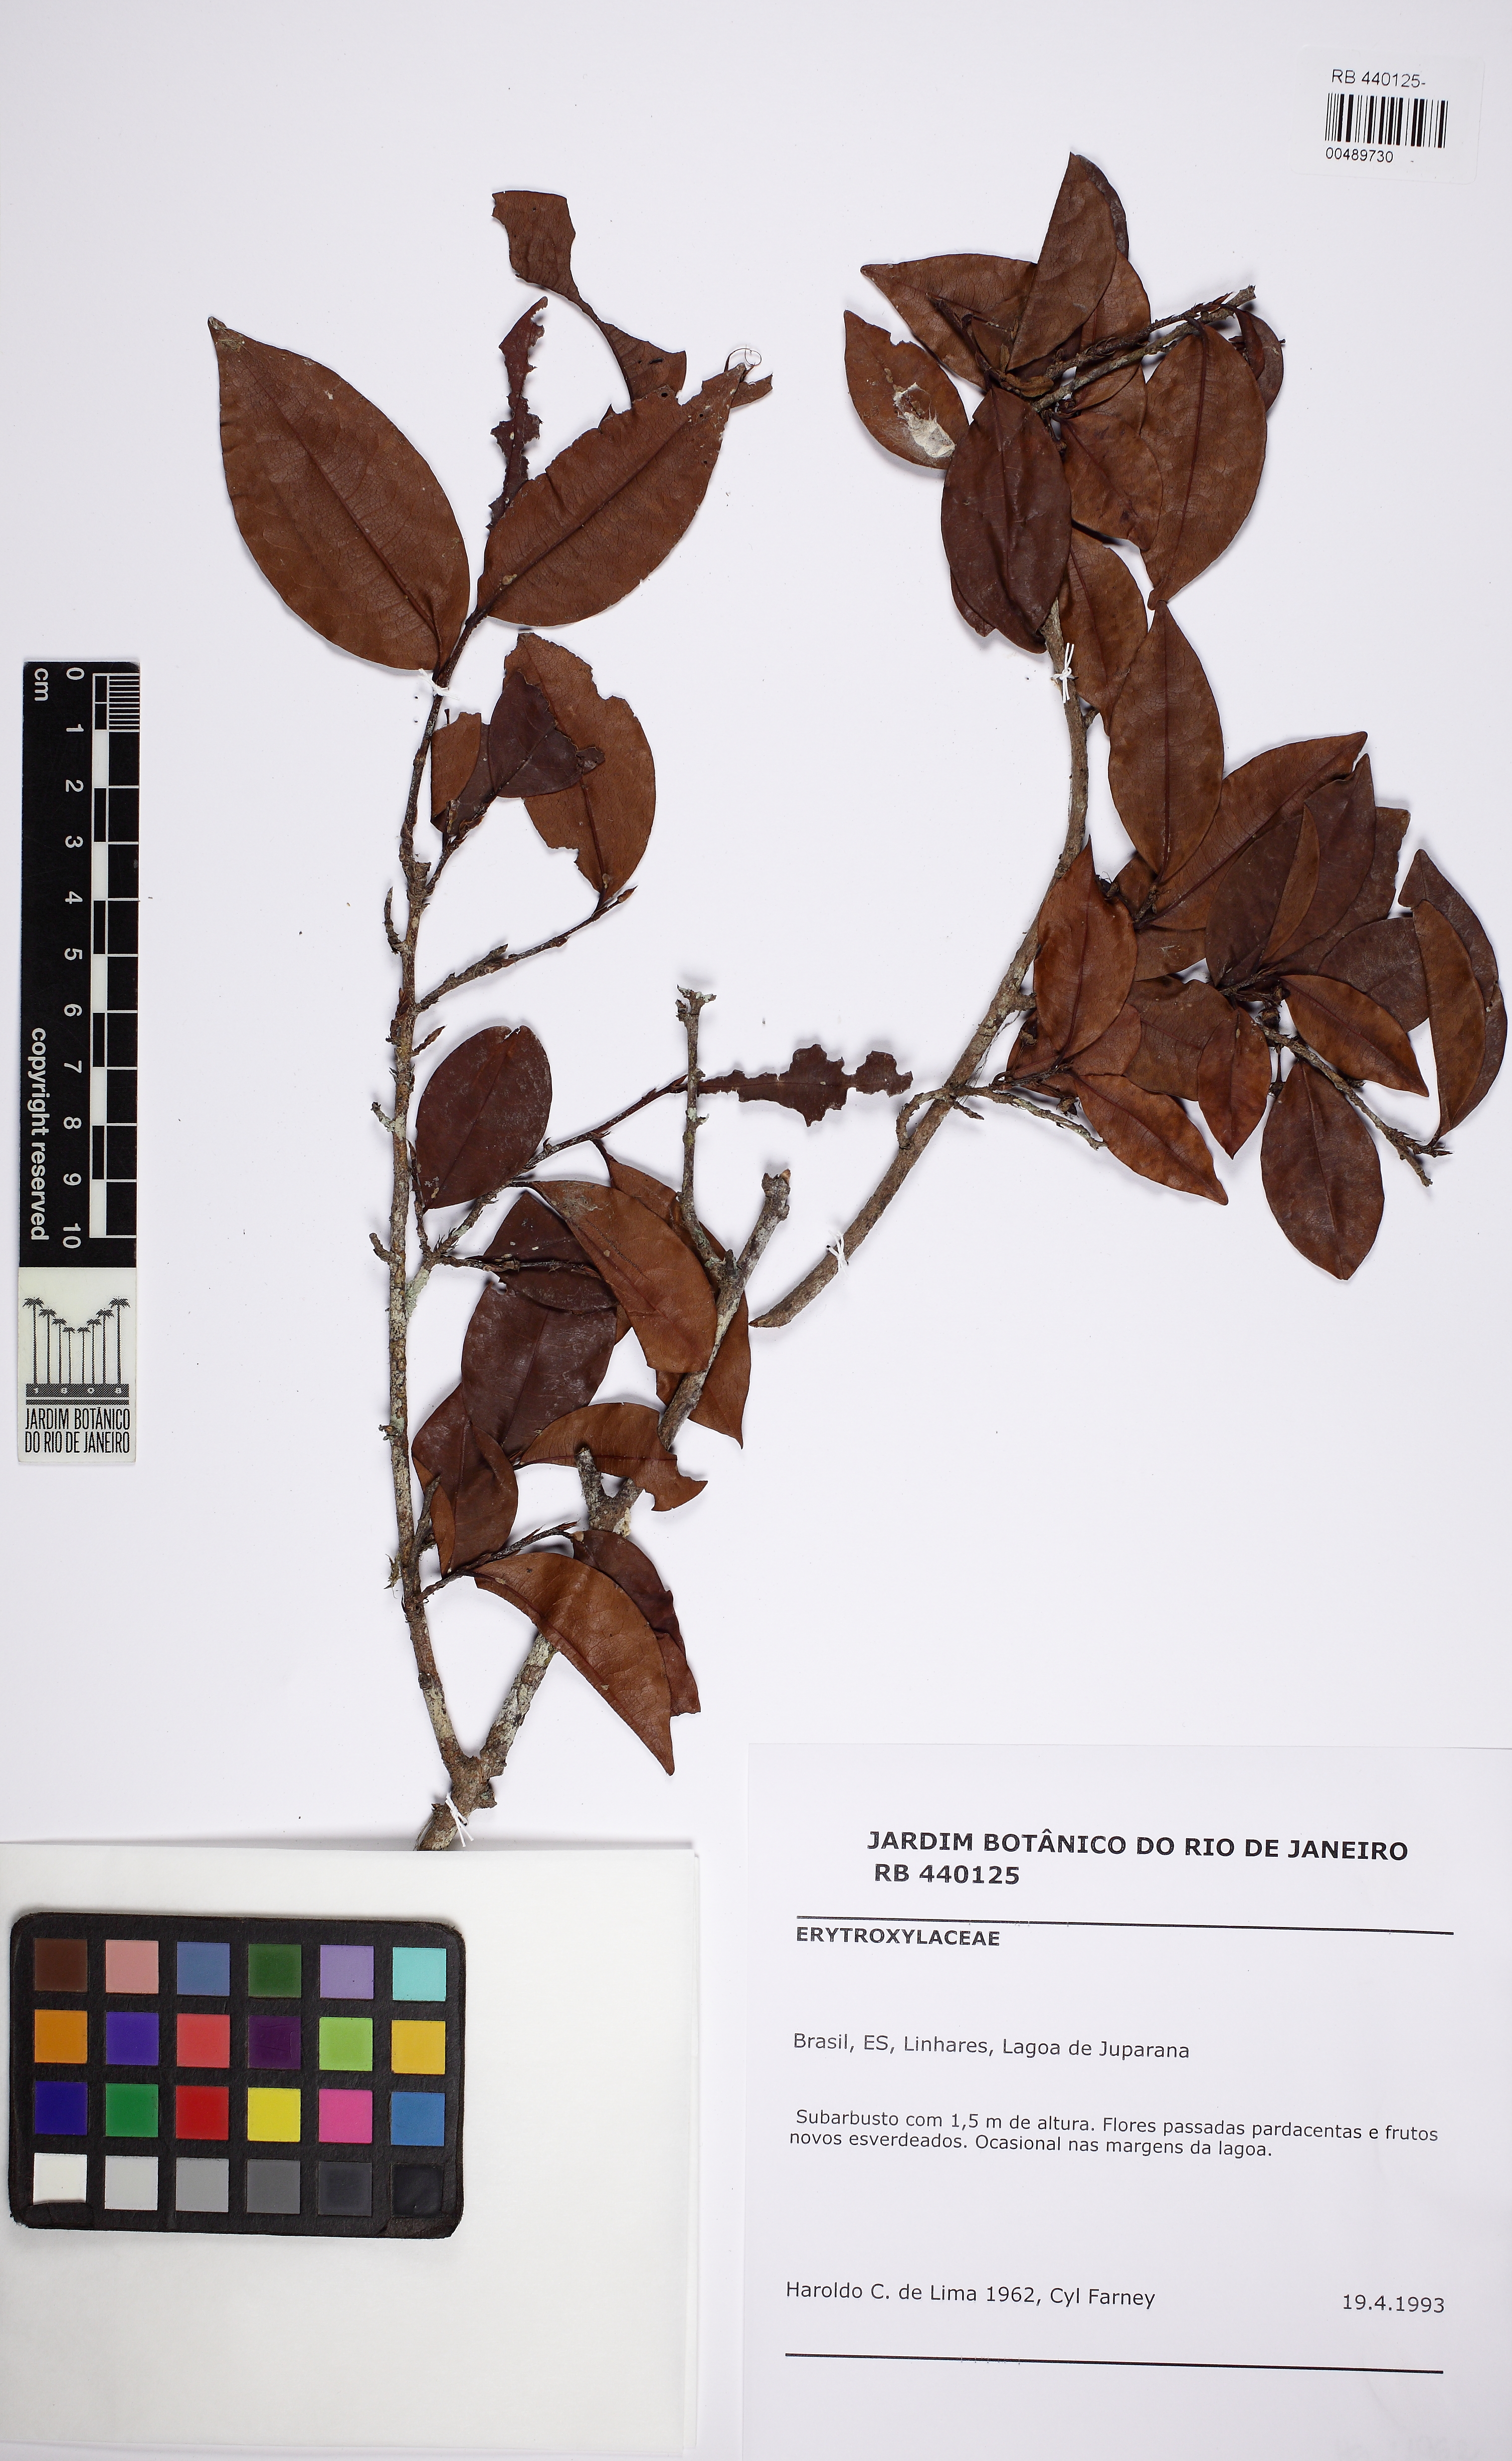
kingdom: Plantae
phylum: Tracheophyta
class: Magnoliopsida
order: Malpighiales
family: Erythroxylaceae
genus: Erythroxylum
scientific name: Erythroxylum passerinum
